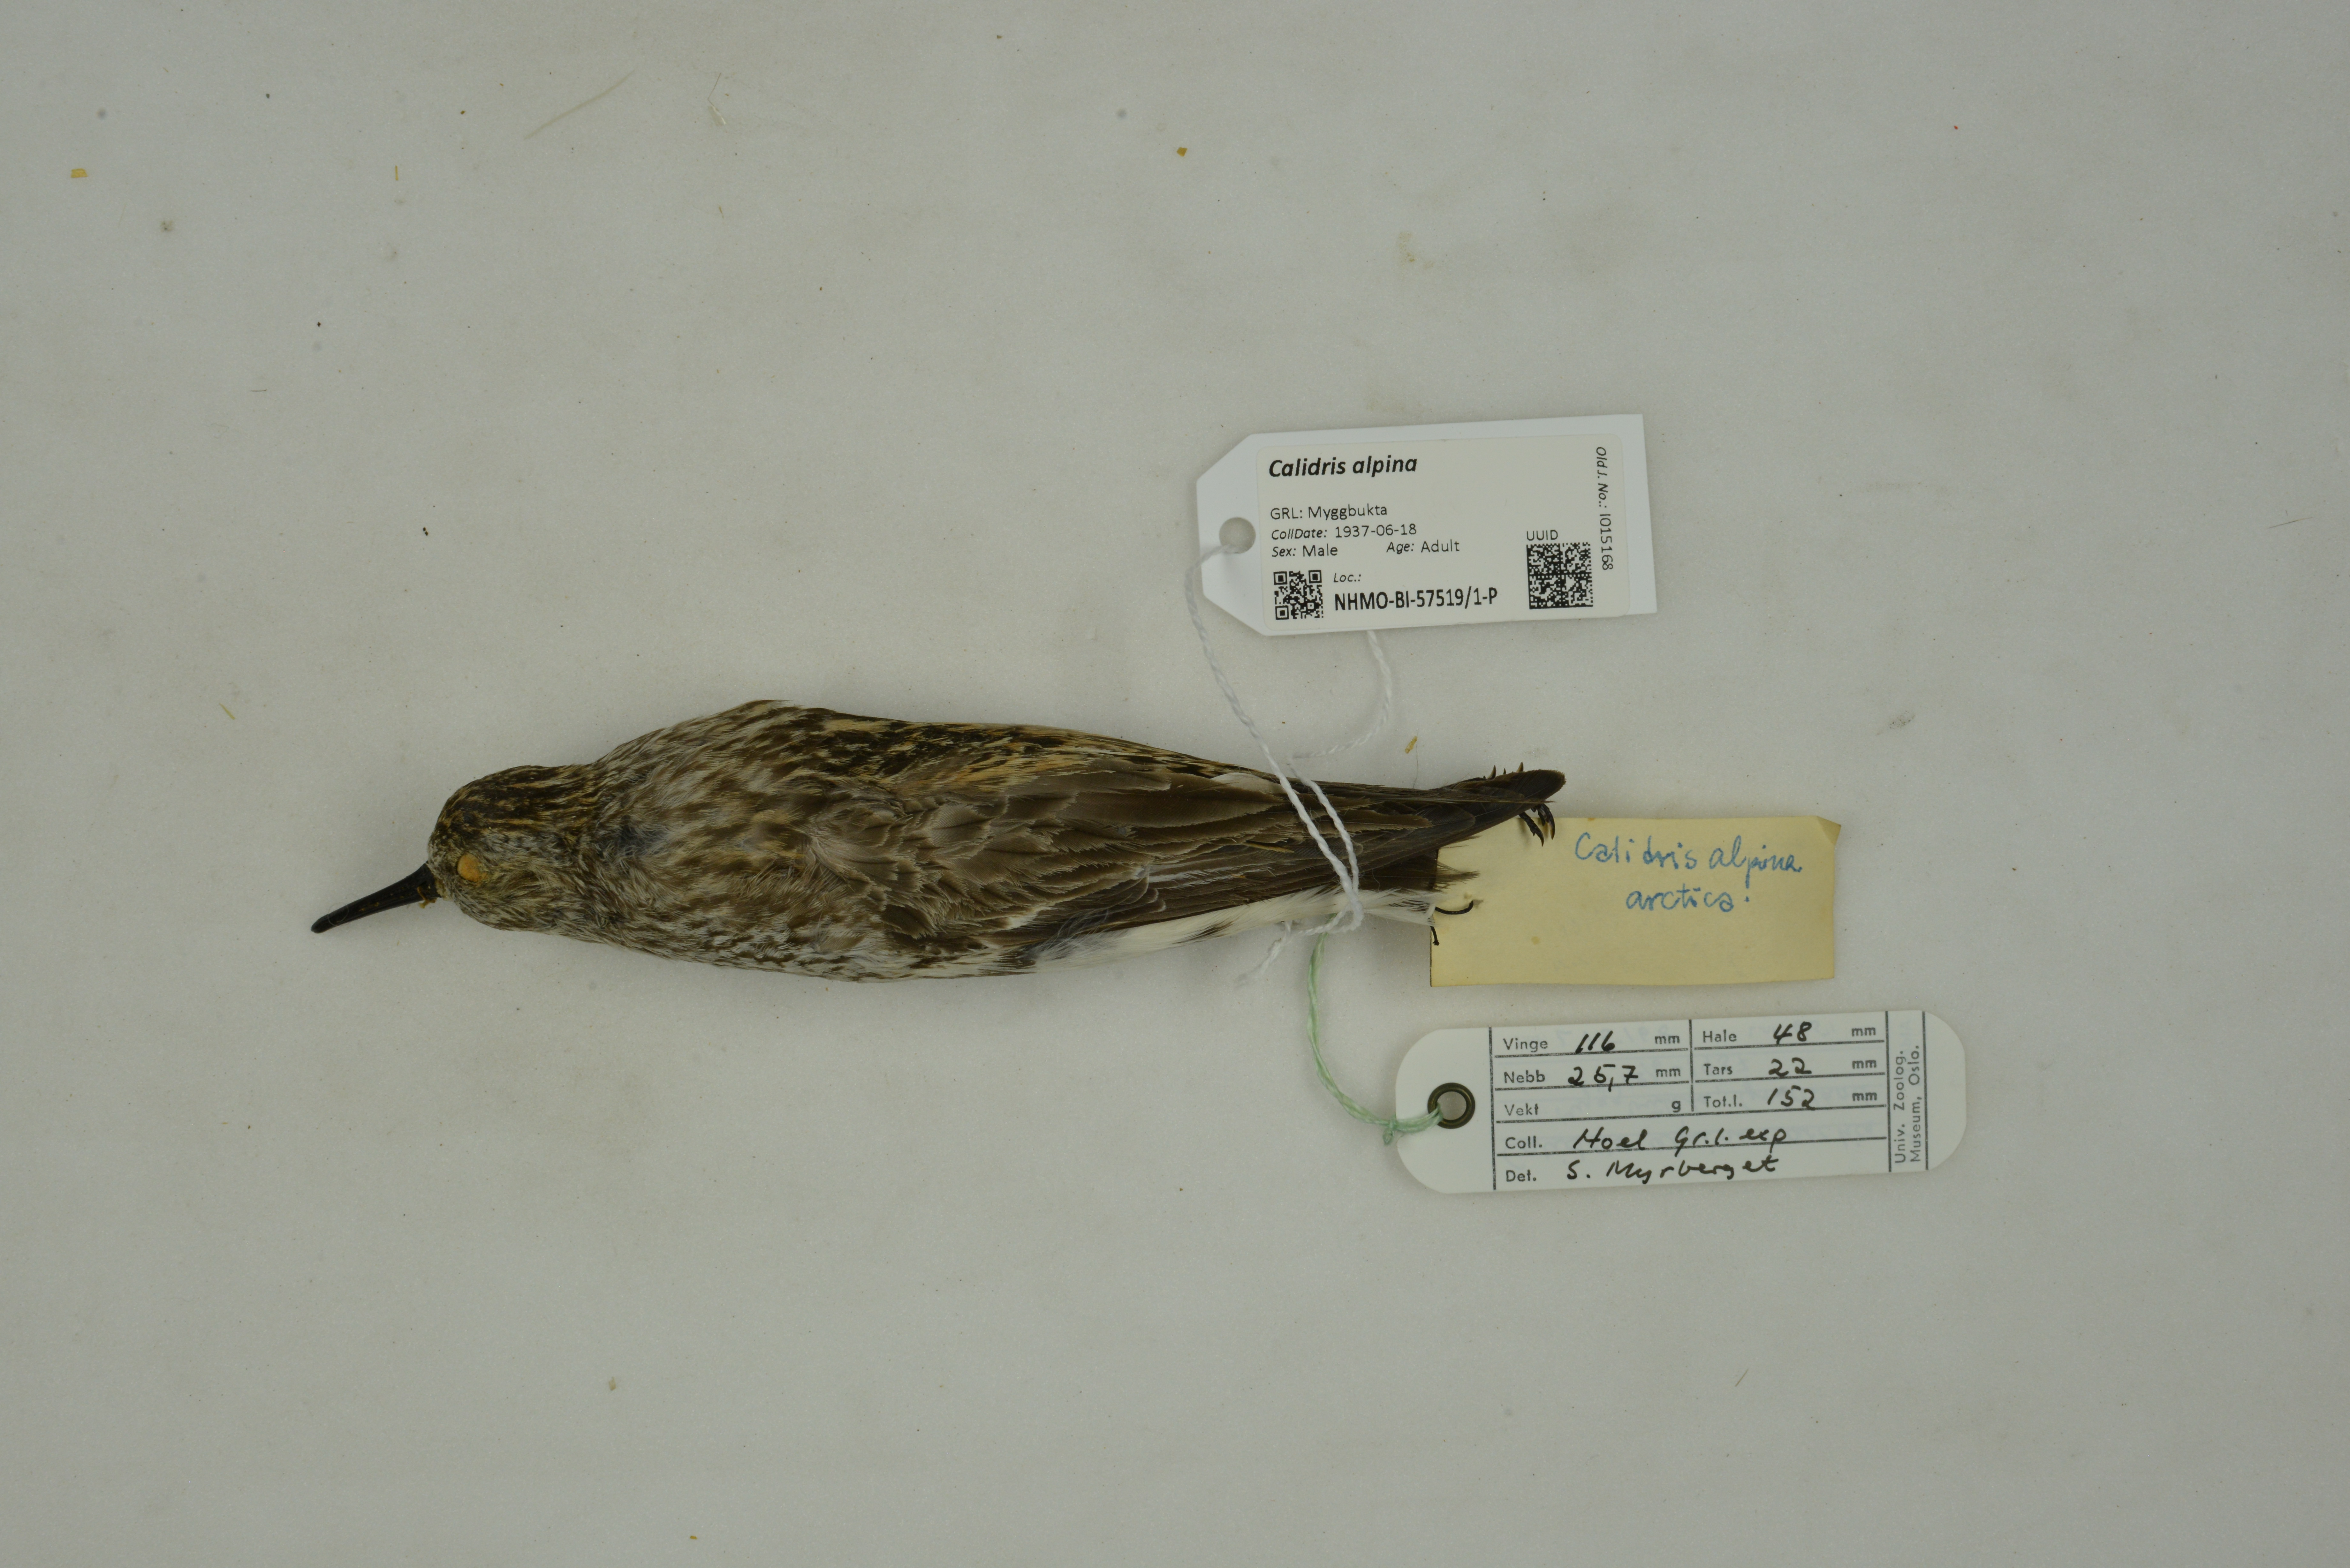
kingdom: Animalia
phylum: Chordata
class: Aves
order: Charadriiformes
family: Scolopacidae
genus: Calidris
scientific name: Calidris alpina
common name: Dunlin
